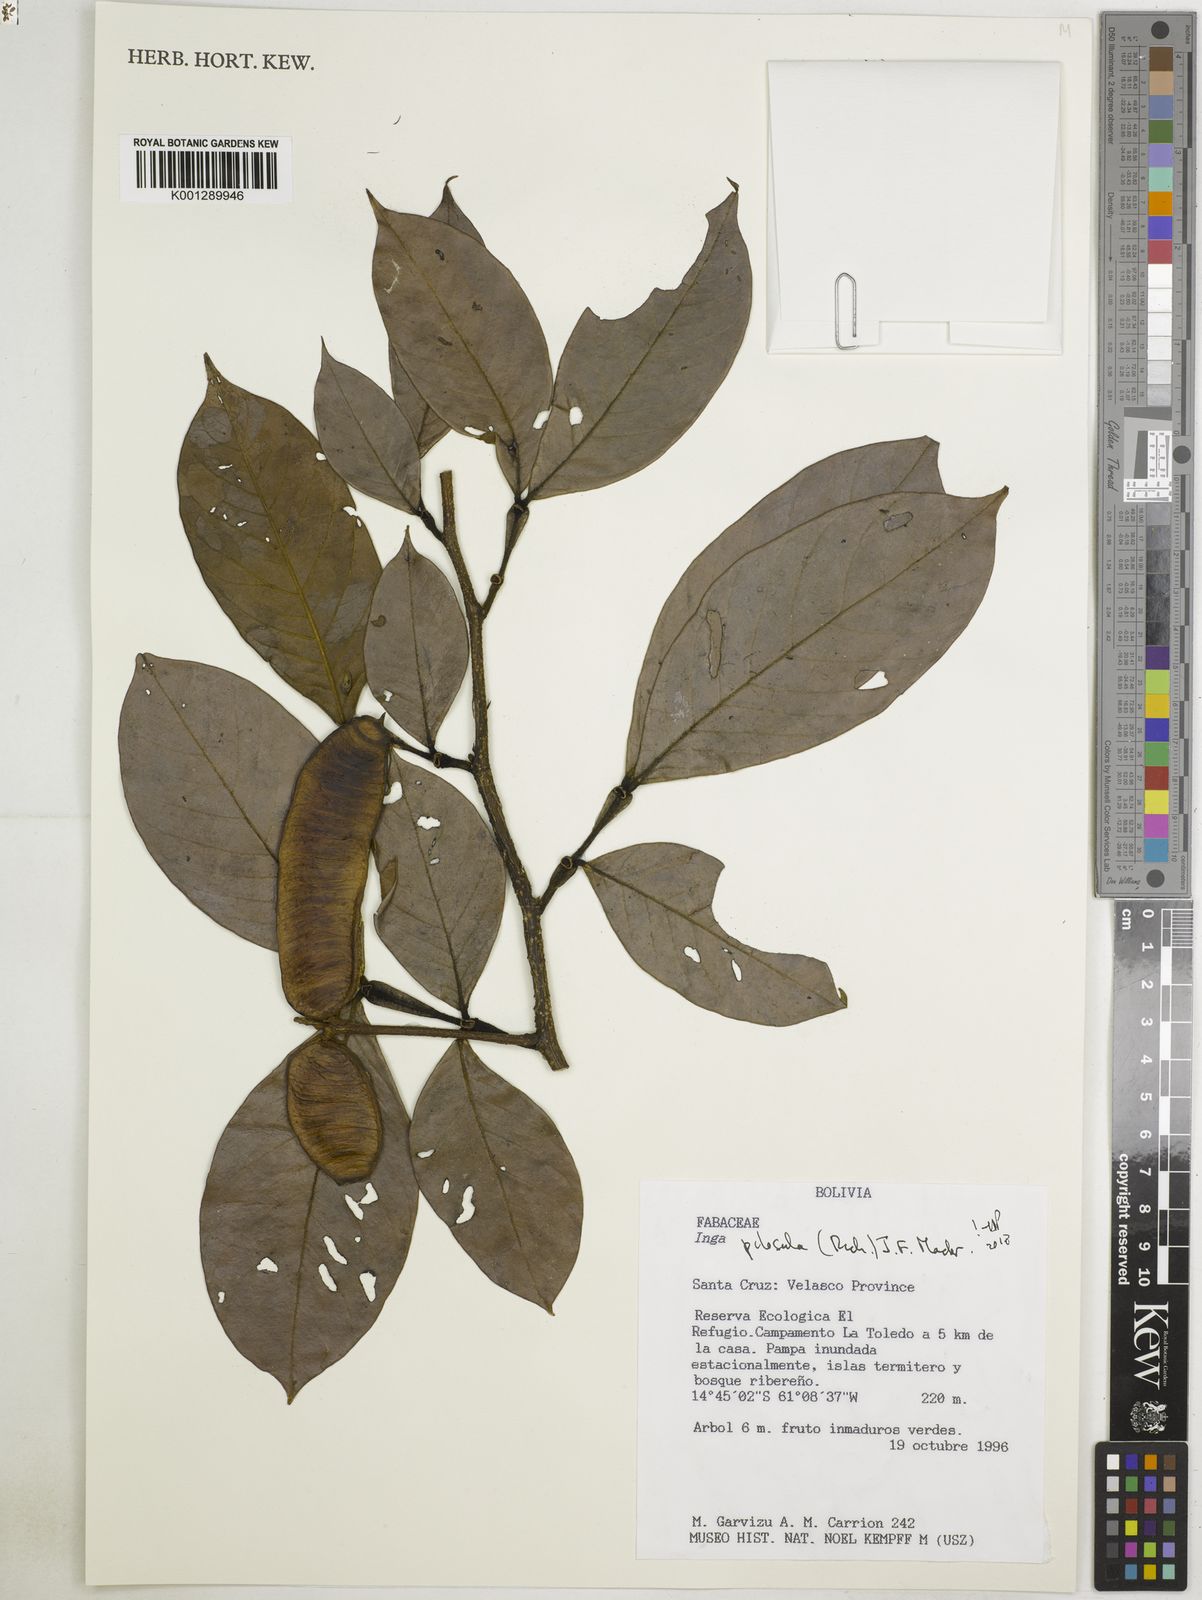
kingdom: Plantae
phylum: Tracheophyta
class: Magnoliopsida
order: Fabales
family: Fabaceae
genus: Inga
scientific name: Inga pilosula
